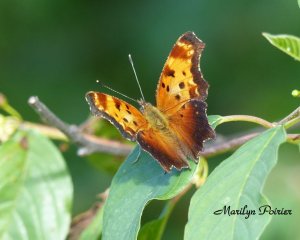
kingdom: Animalia
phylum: Arthropoda
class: Insecta
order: Lepidoptera
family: Nymphalidae
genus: Polygonia
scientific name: Polygonia comma
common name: Eastern Comma
